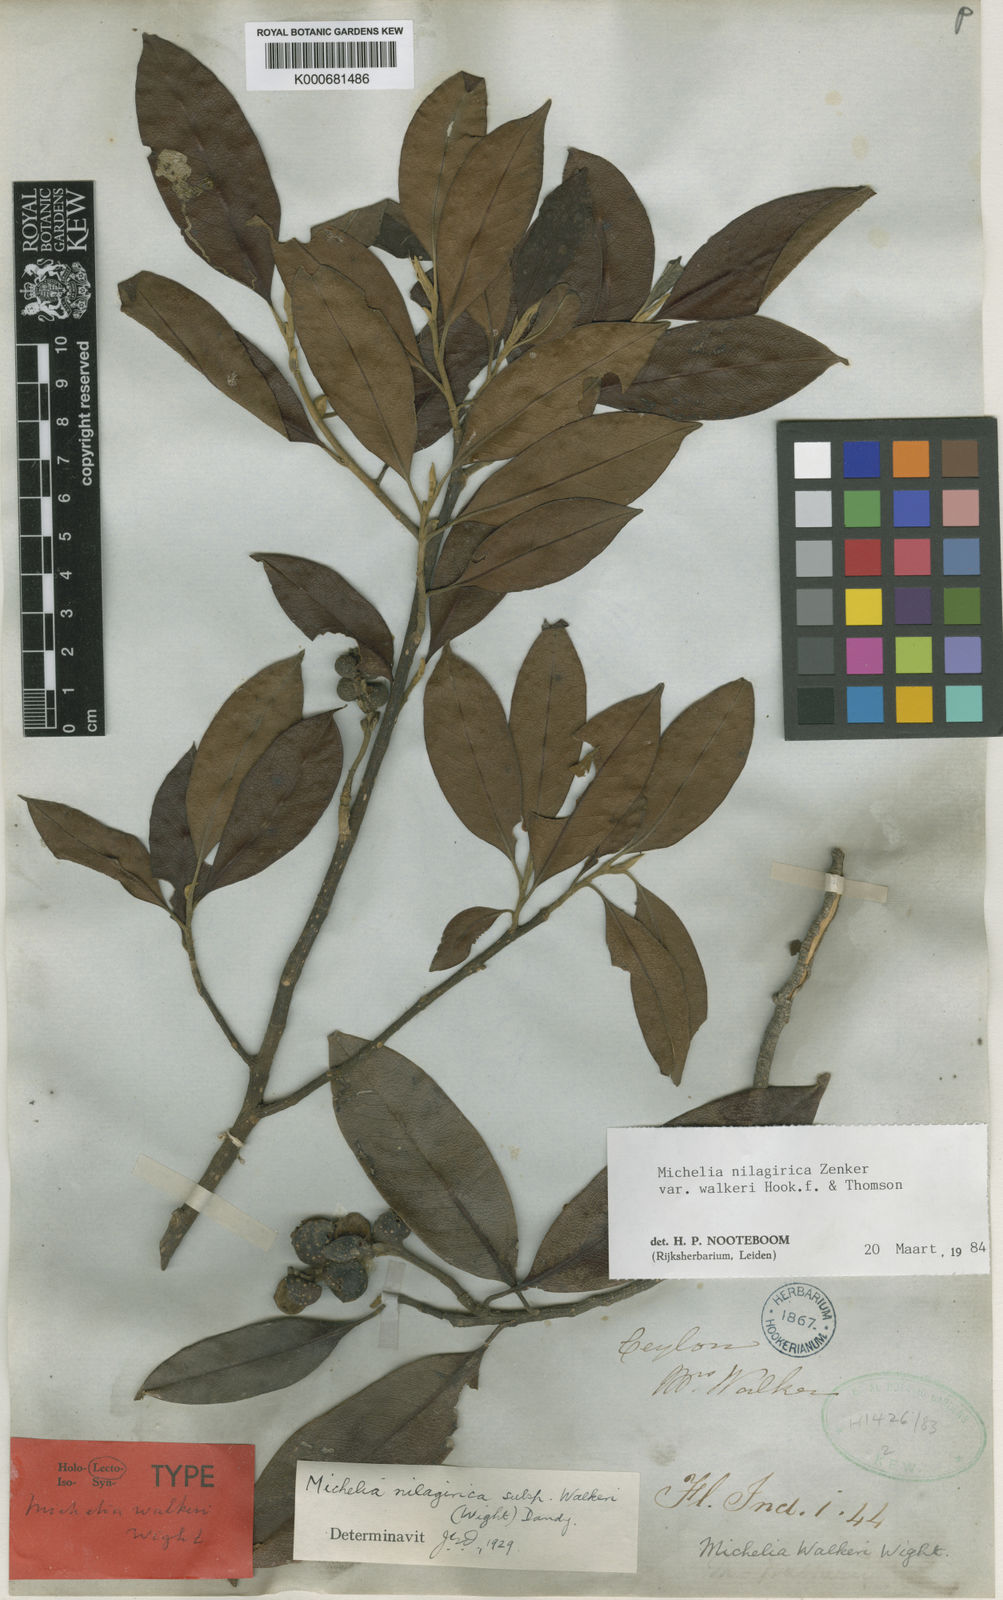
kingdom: Plantae
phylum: Tracheophyta
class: Magnoliopsida
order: Magnoliales
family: Magnoliaceae
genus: Magnolia
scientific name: Magnolia nilagirica
